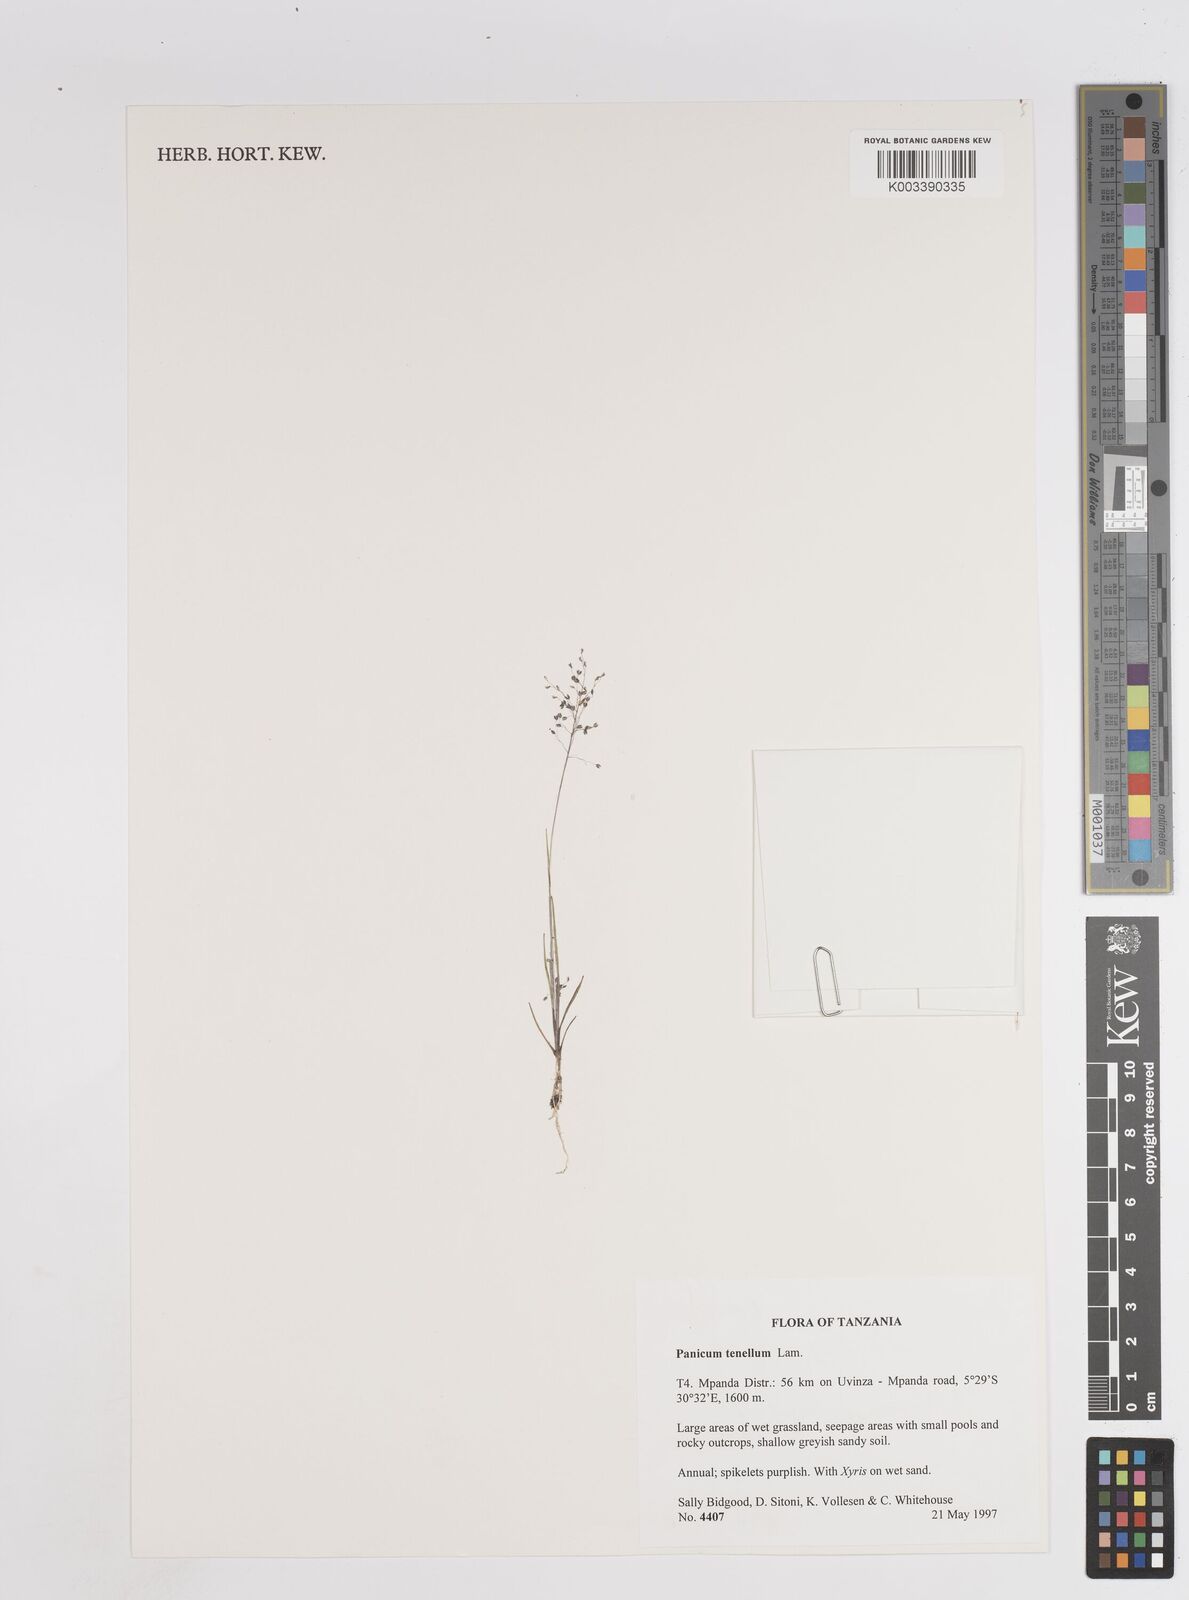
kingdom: Plantae
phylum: Tracheophyta
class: Liliopsida
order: Poales
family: Poaceae
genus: Trichanthecium
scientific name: Trichanthecium tenellum
